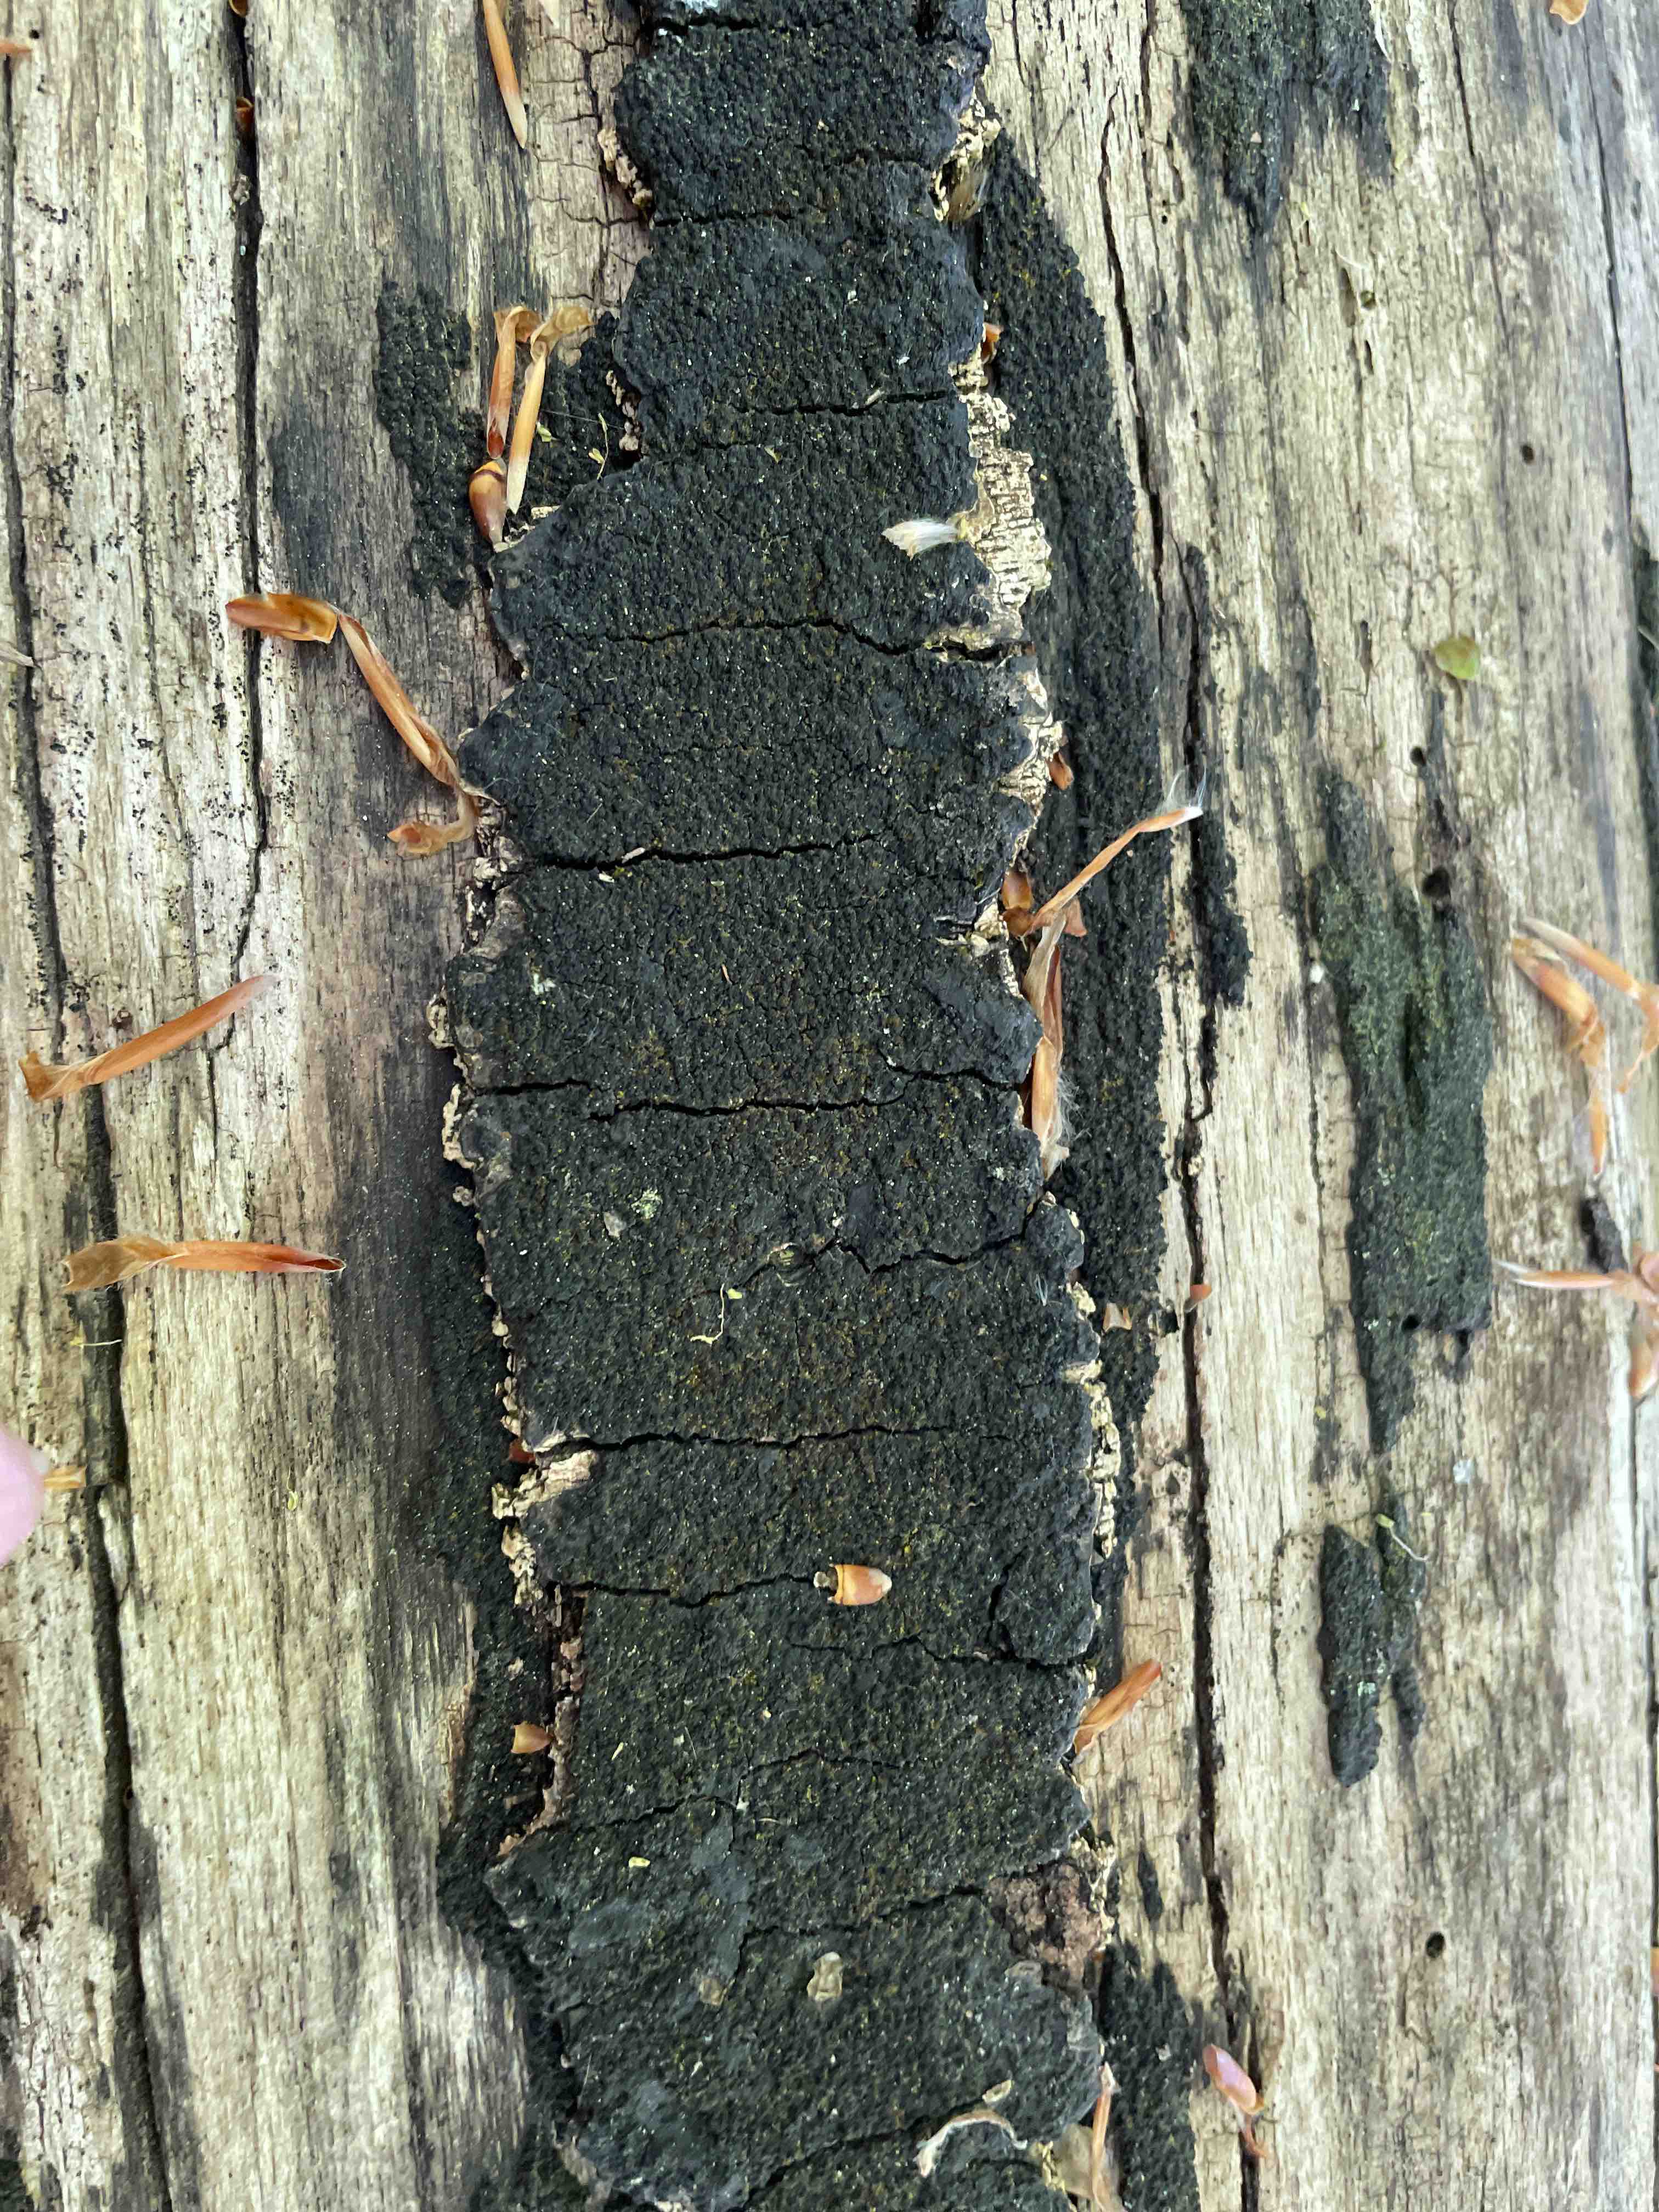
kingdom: Fungi
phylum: Ascomycota
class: Sordariomycetes
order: Xylariales
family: Diatrypaceae
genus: Eutypa
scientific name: Eutypa spinosa
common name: grov kulskorpe
